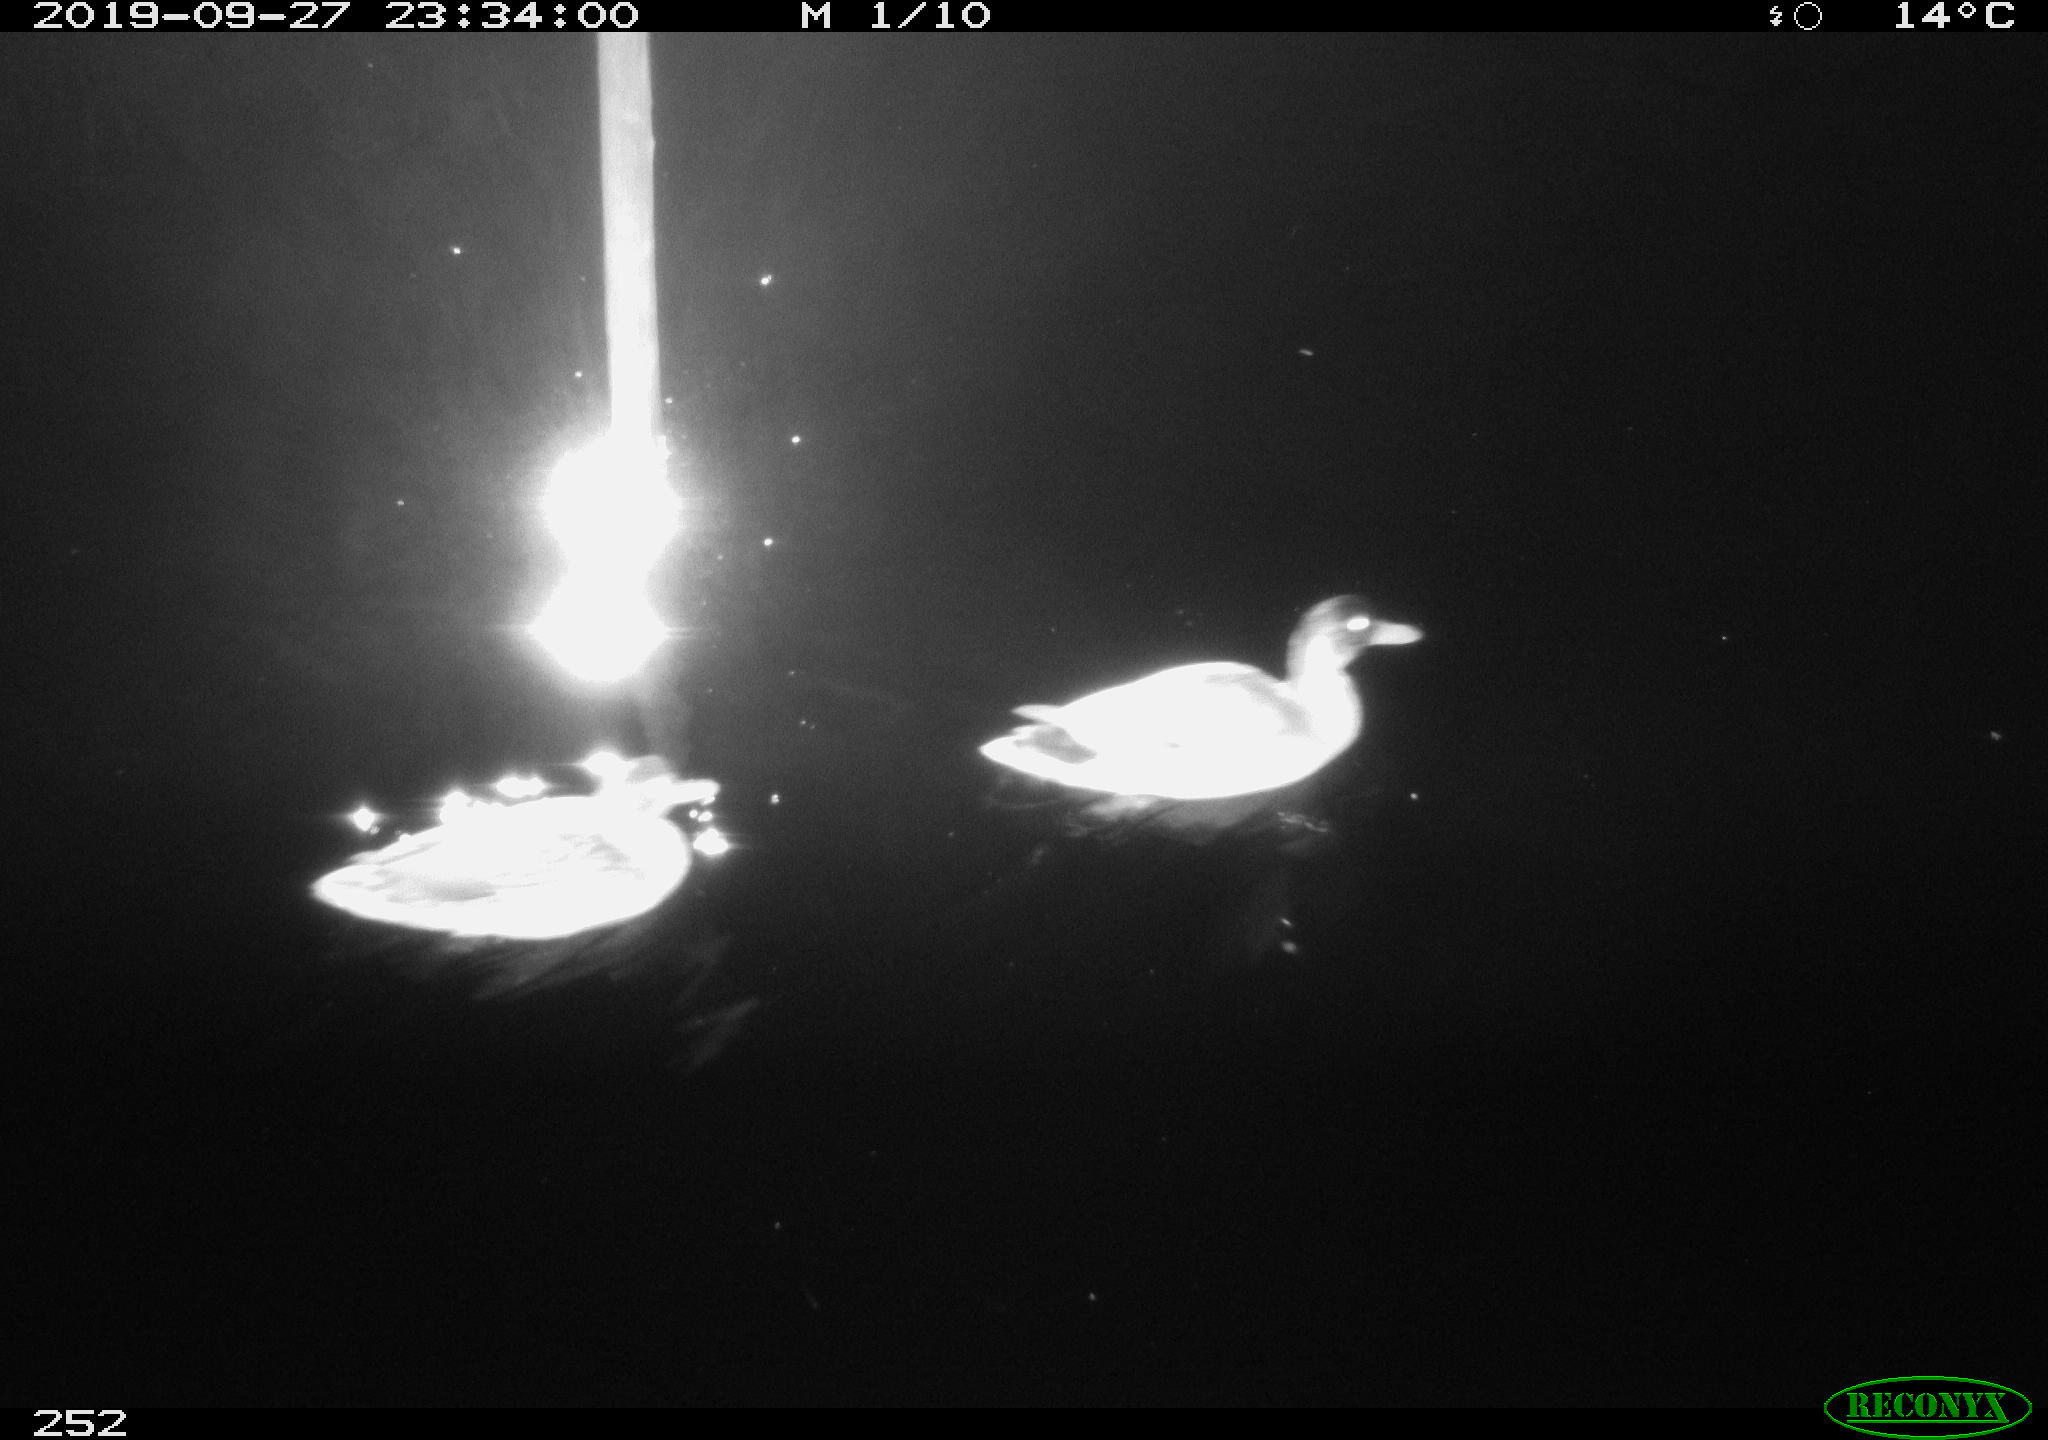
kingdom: Animalia
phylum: Chordata
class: Aves
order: Anseriformes
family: Anatidae
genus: Anas
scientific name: Anas platyrhynchos
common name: Mallard
